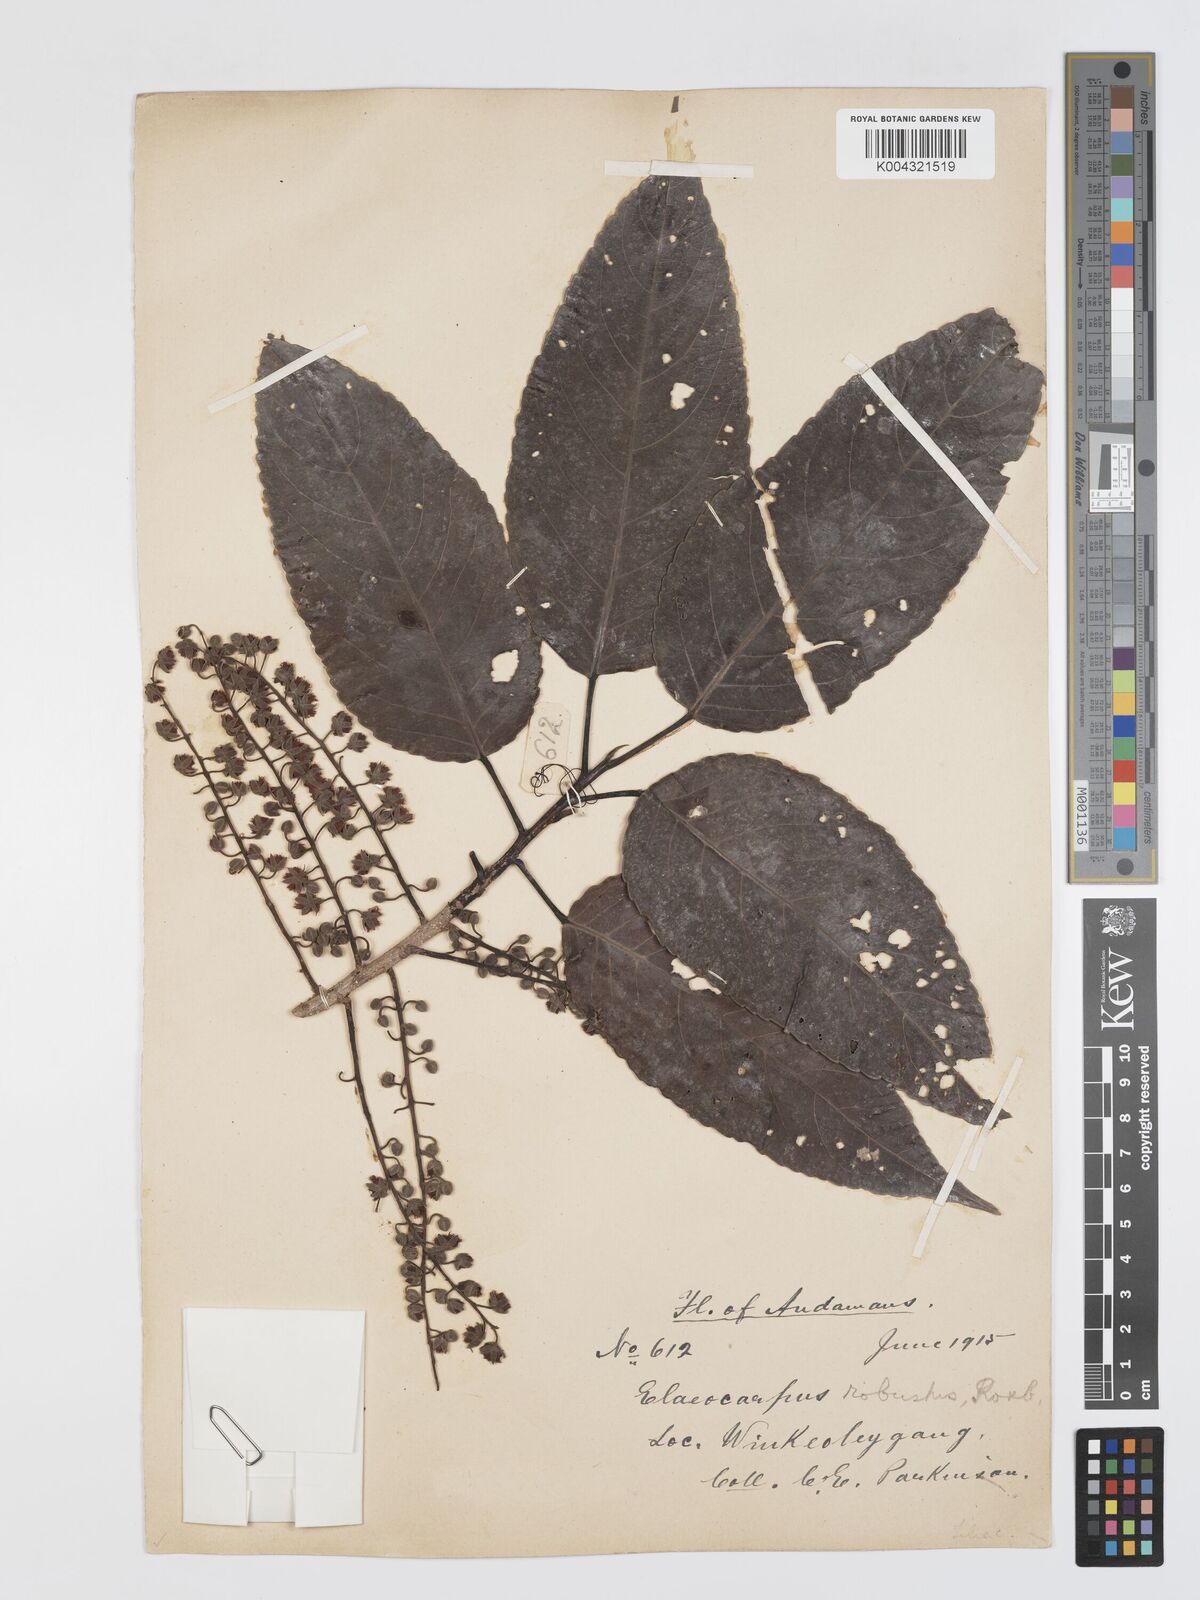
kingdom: Plantae
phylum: Tracheophyta
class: Magnoliopsida
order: Oxalidales
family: Elaeocarpaceae
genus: Elaeocarpus
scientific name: Elaeocarpus robustus
